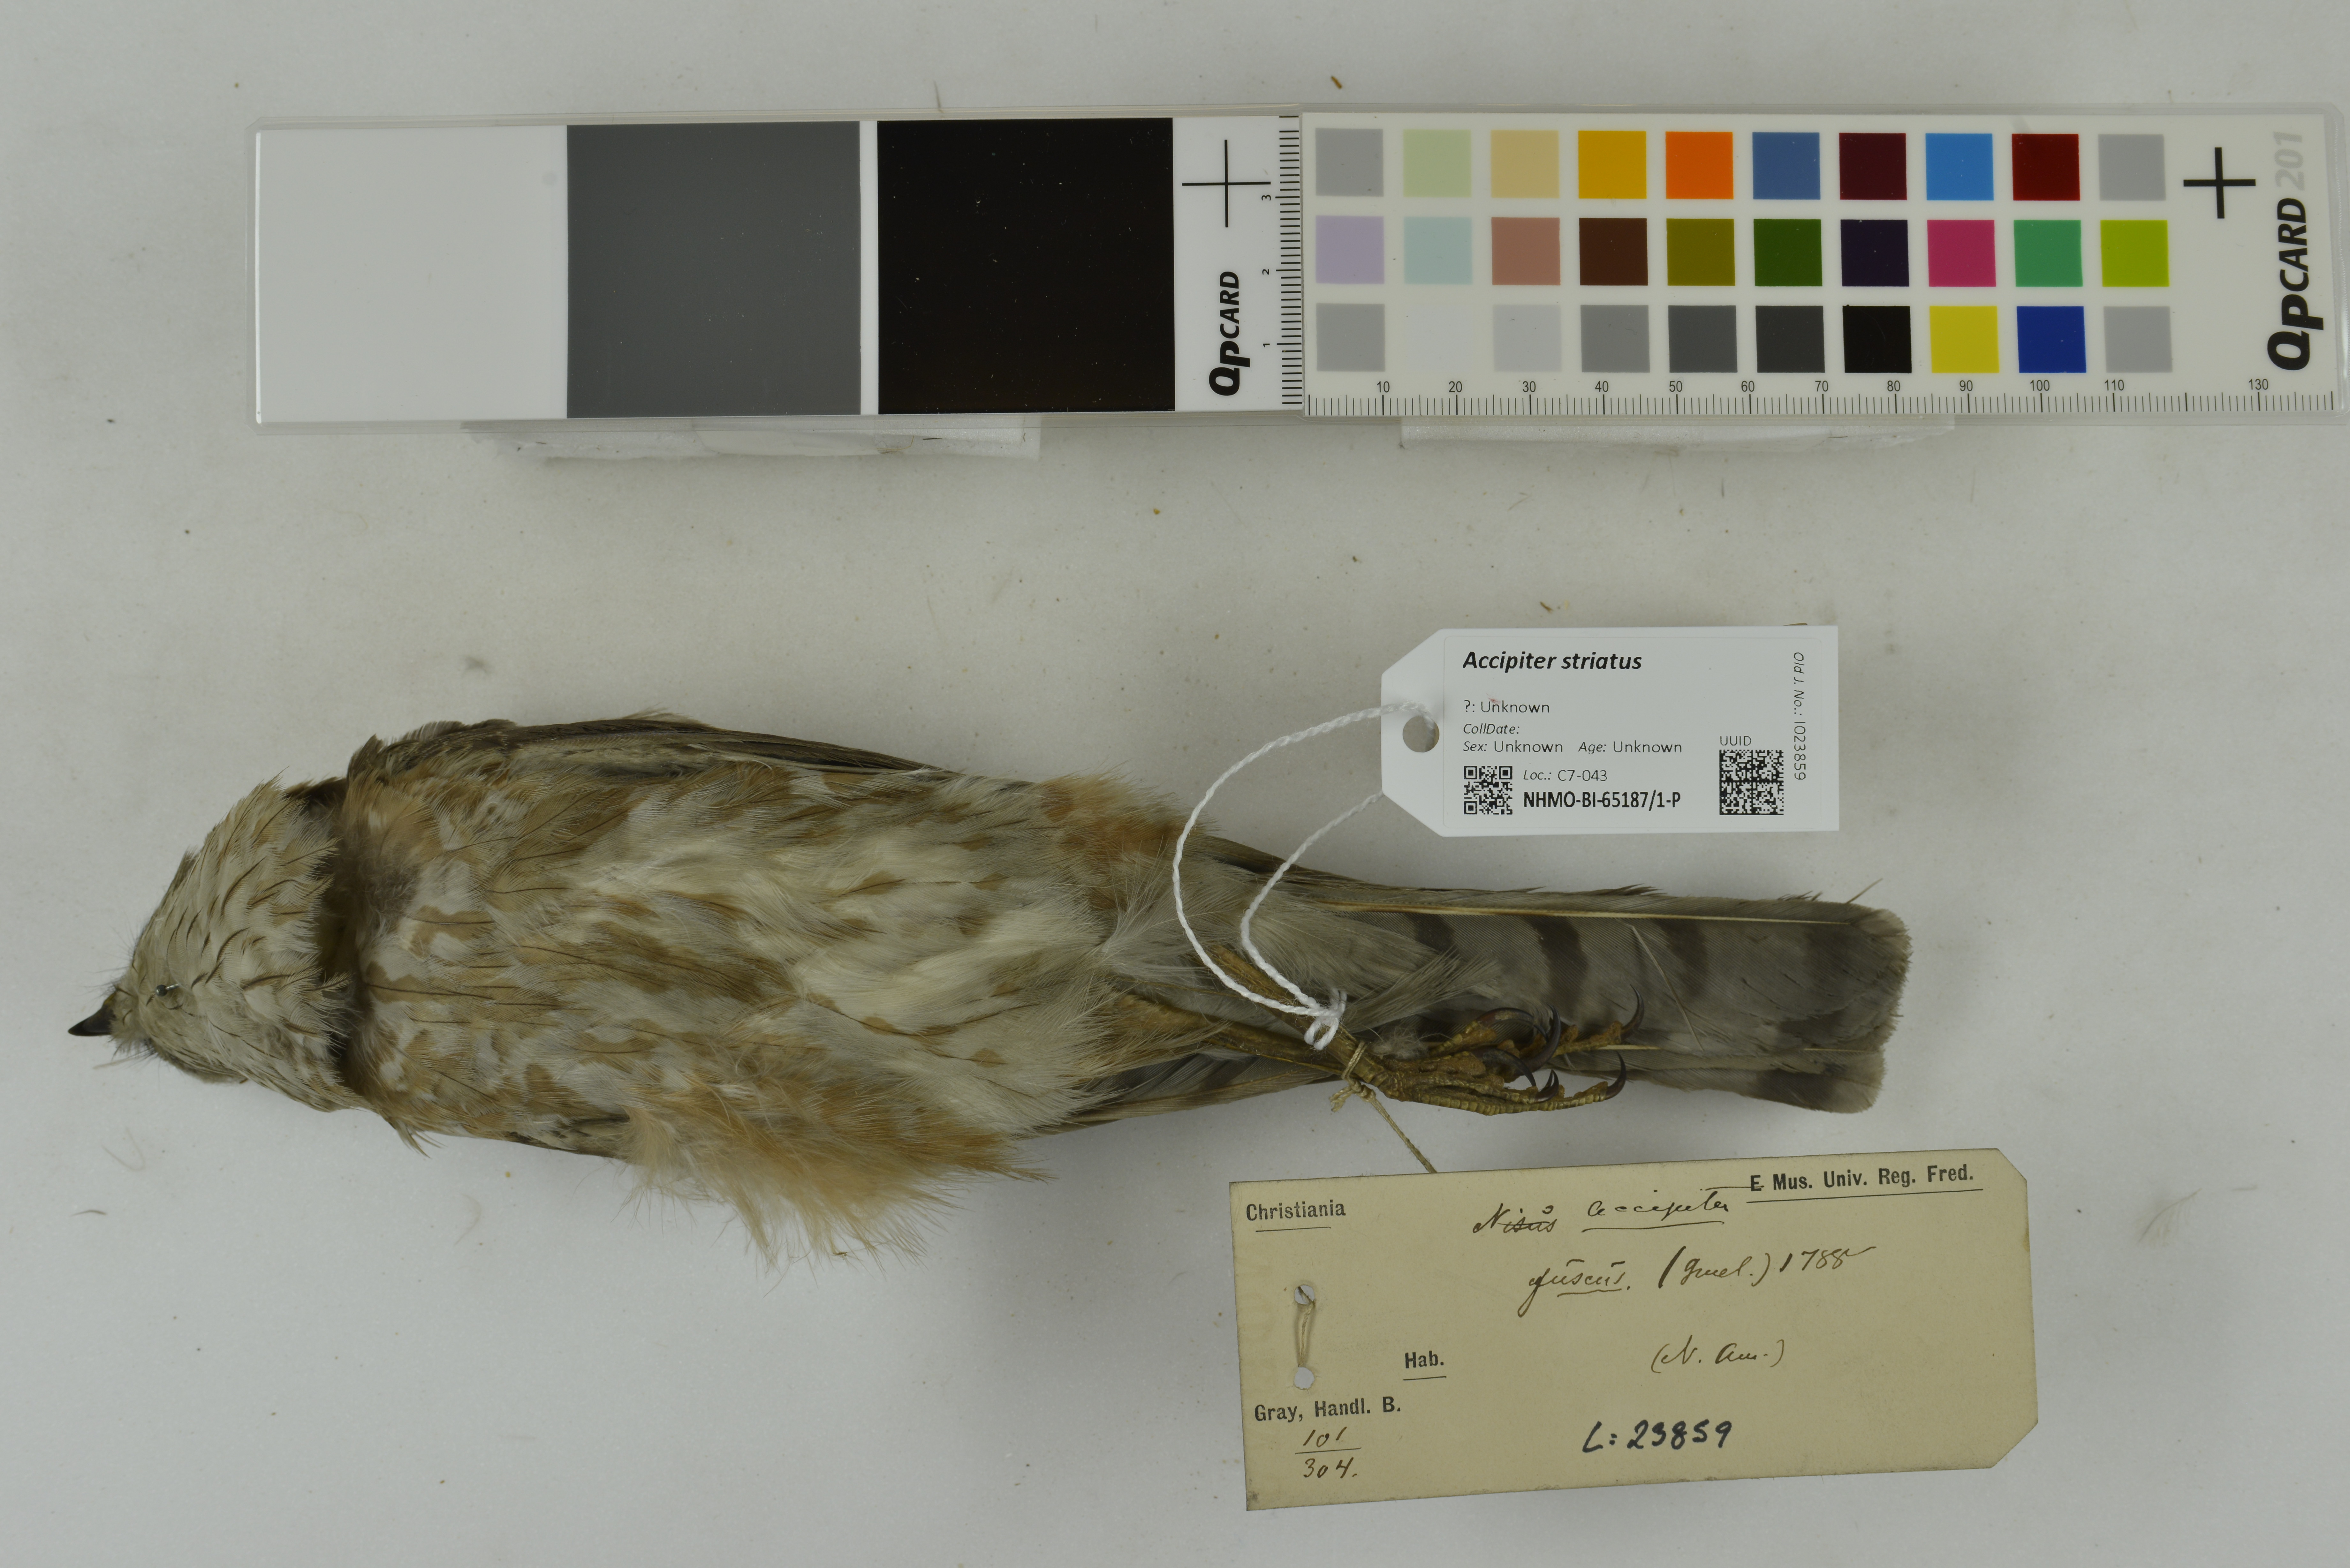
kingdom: Animalia
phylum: Chordata
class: Aves
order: Accipitriformes
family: Accipitridae
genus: Accipiter
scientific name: Accipiter striatus
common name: Sharp-shinned hawk
